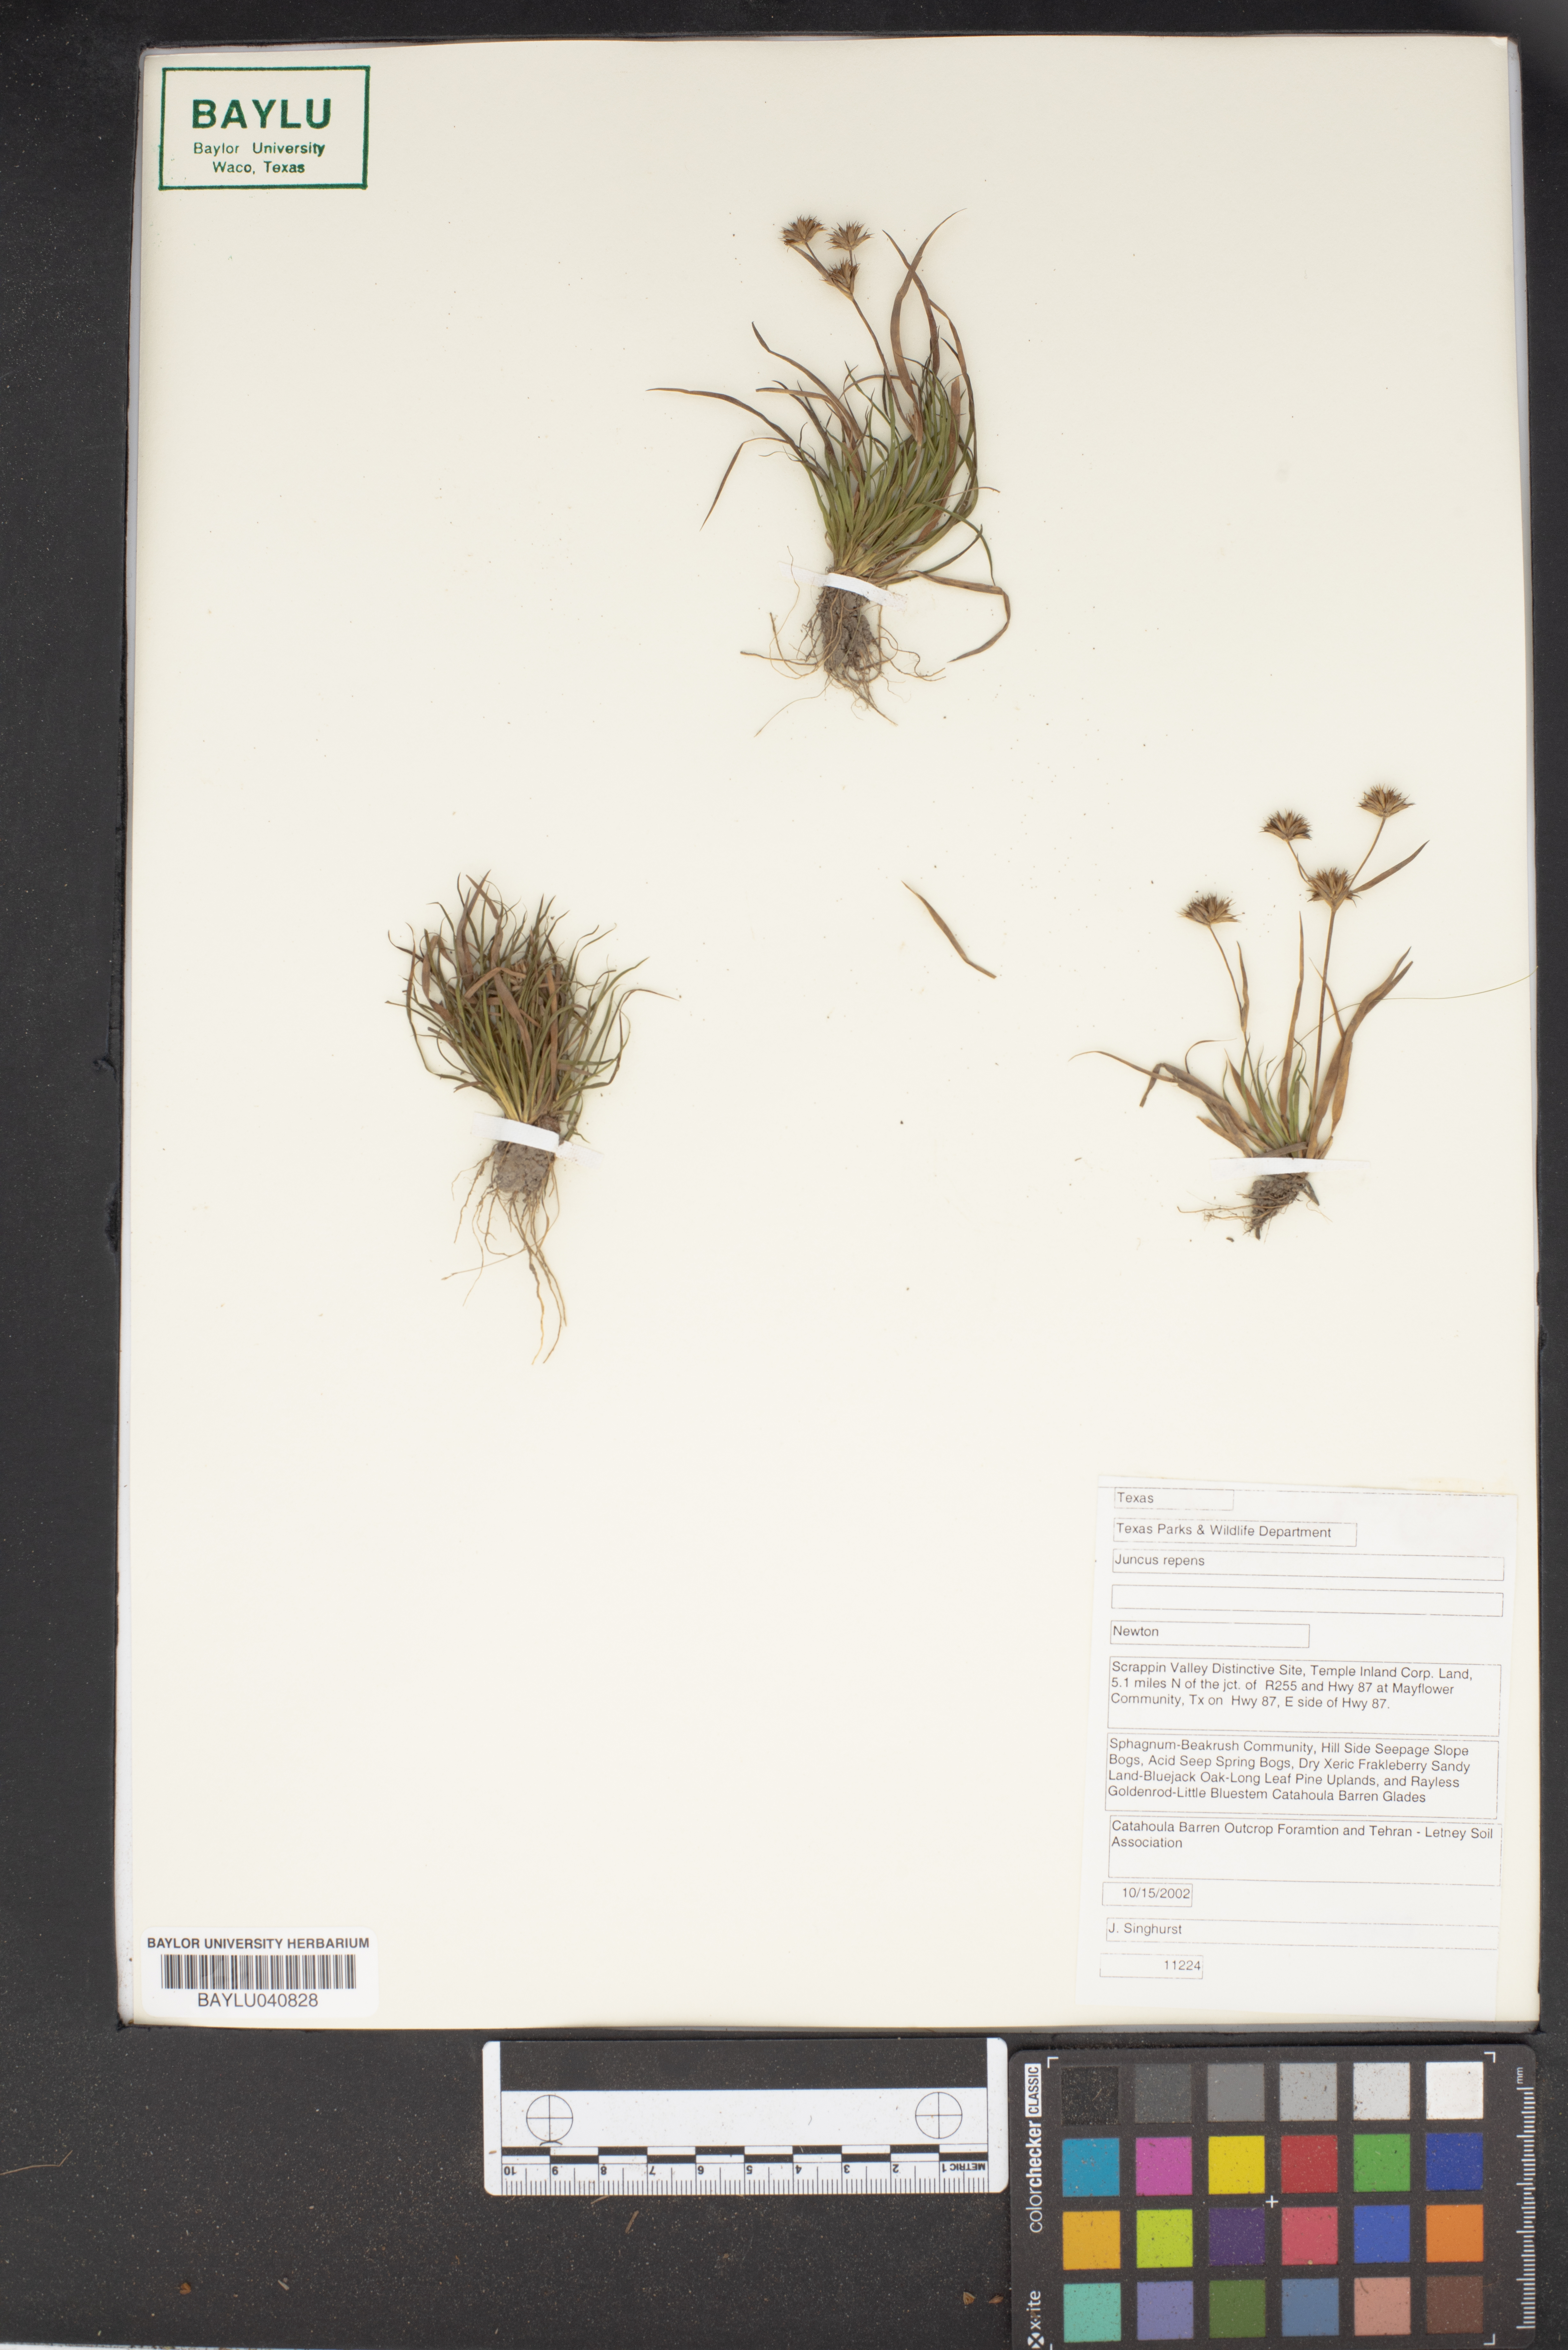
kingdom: Plantae
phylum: Tracheophyta
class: Liliopsida
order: Poales
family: Juncaceae
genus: Juncus
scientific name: Juncus repens
